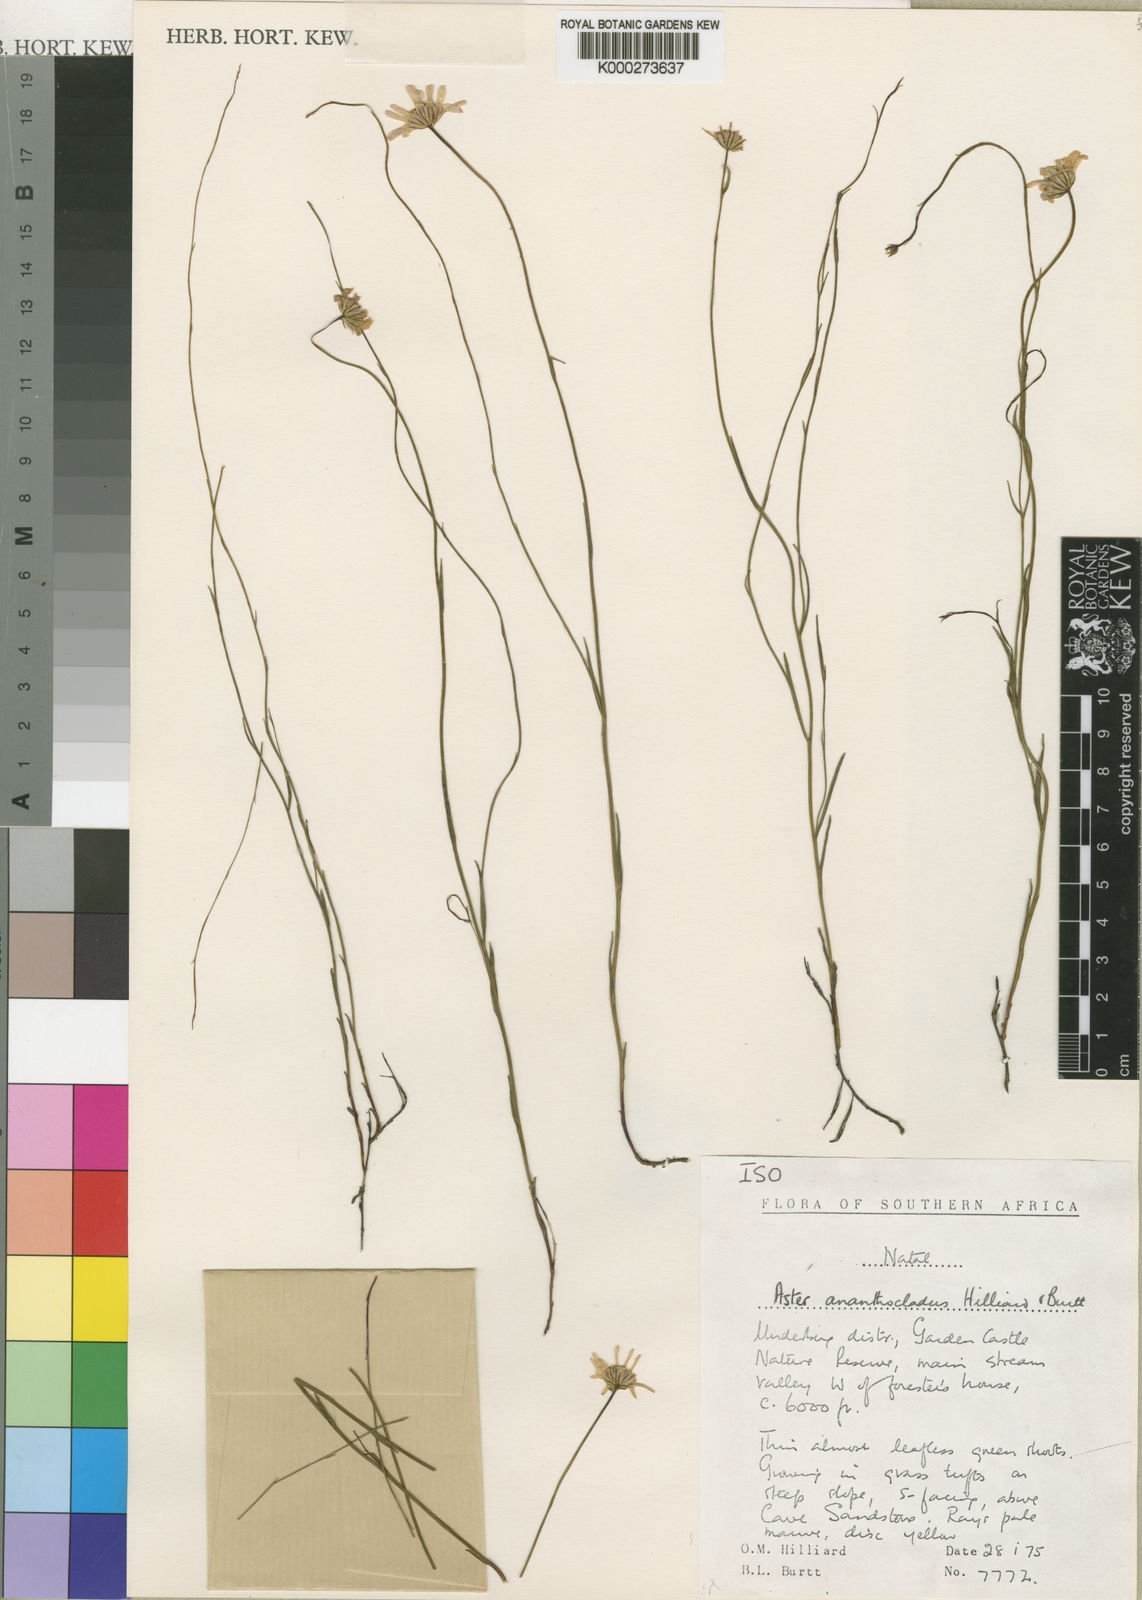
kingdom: Plantae
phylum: Tracheophyta
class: Magnoliopsida
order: Asterales
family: Asteraceae
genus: Afroaster
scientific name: Afroaster ananthocladus
